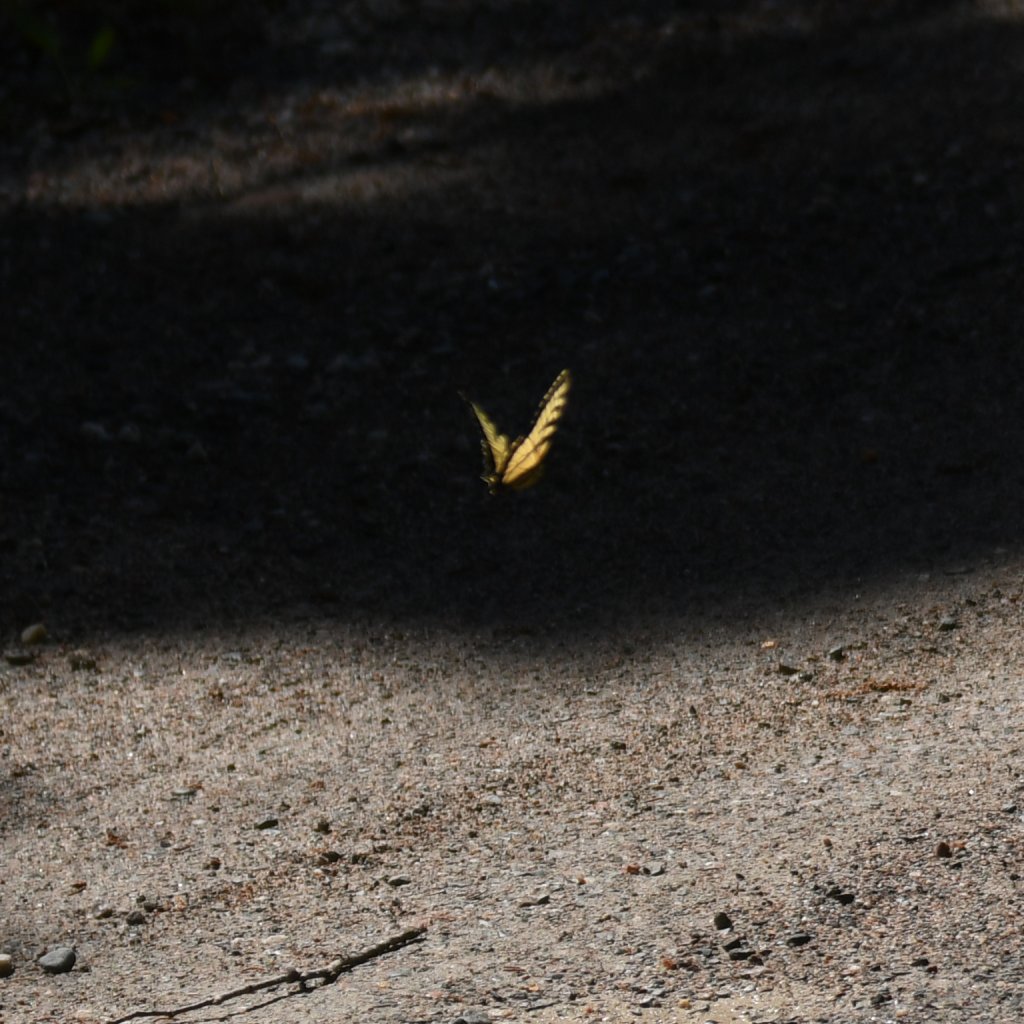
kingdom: Animalia
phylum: Arthropoda
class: Insecta
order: Lepidoptera
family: Papilionidae
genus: Pterourus
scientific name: Pterourus canadensis
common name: Canadian Tiger Swallowtail
